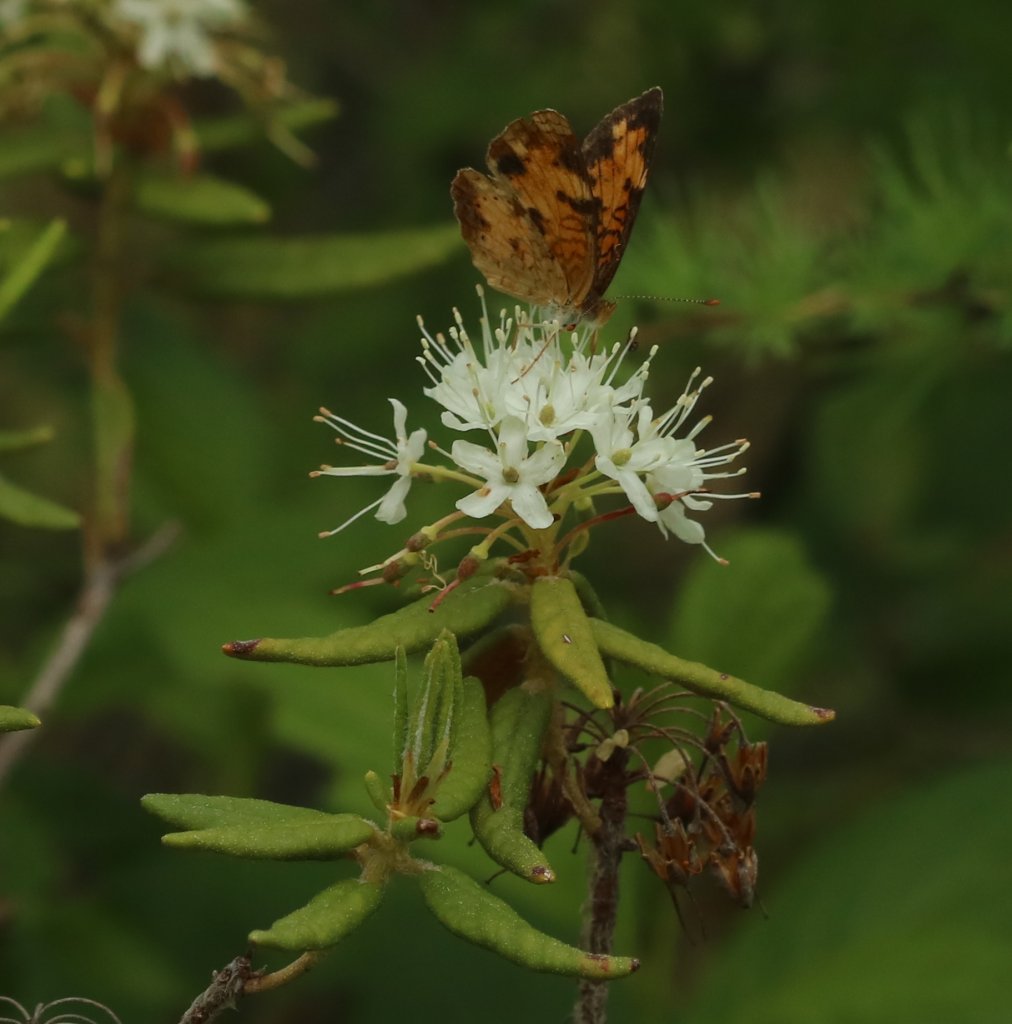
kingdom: Animalia
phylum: Arthropoda
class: Insecta
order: Lepidoptera
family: Nymphalidae
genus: Phyciodes
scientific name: Phyciodes tharos
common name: Northern Crescent
